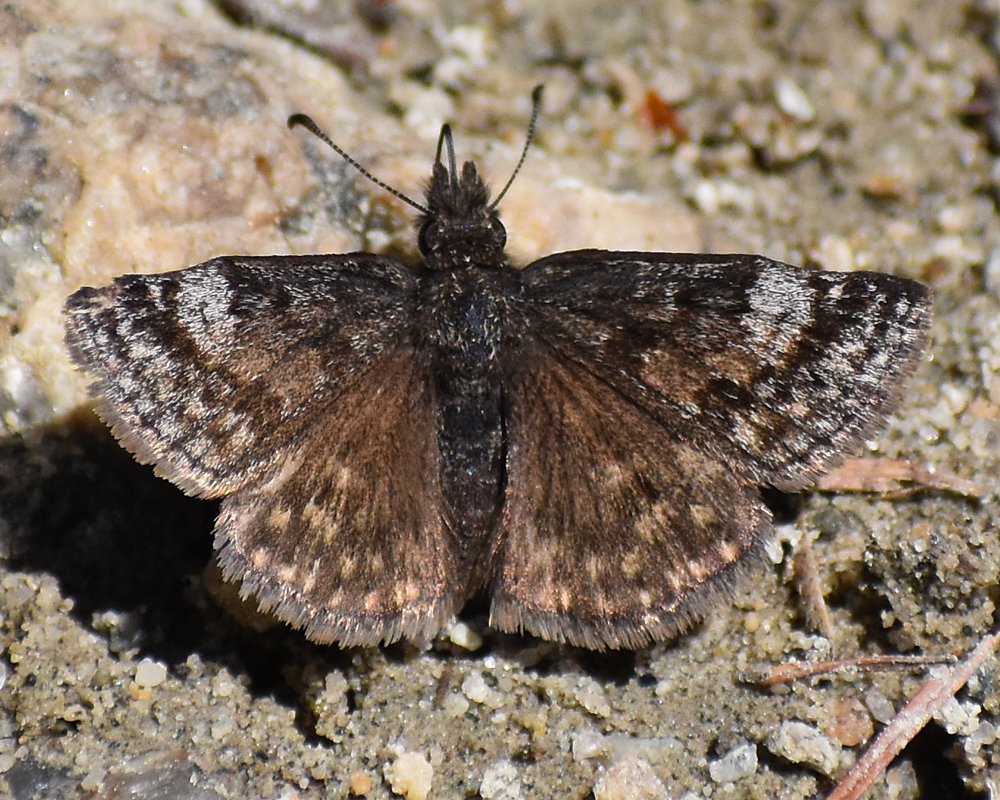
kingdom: Animalia
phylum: Arthropoda
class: Insecta
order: Lepidoptera
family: Hesperiidae
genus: Erynnis
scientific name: Erynnis icelus
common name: Dreamy Duskywing
